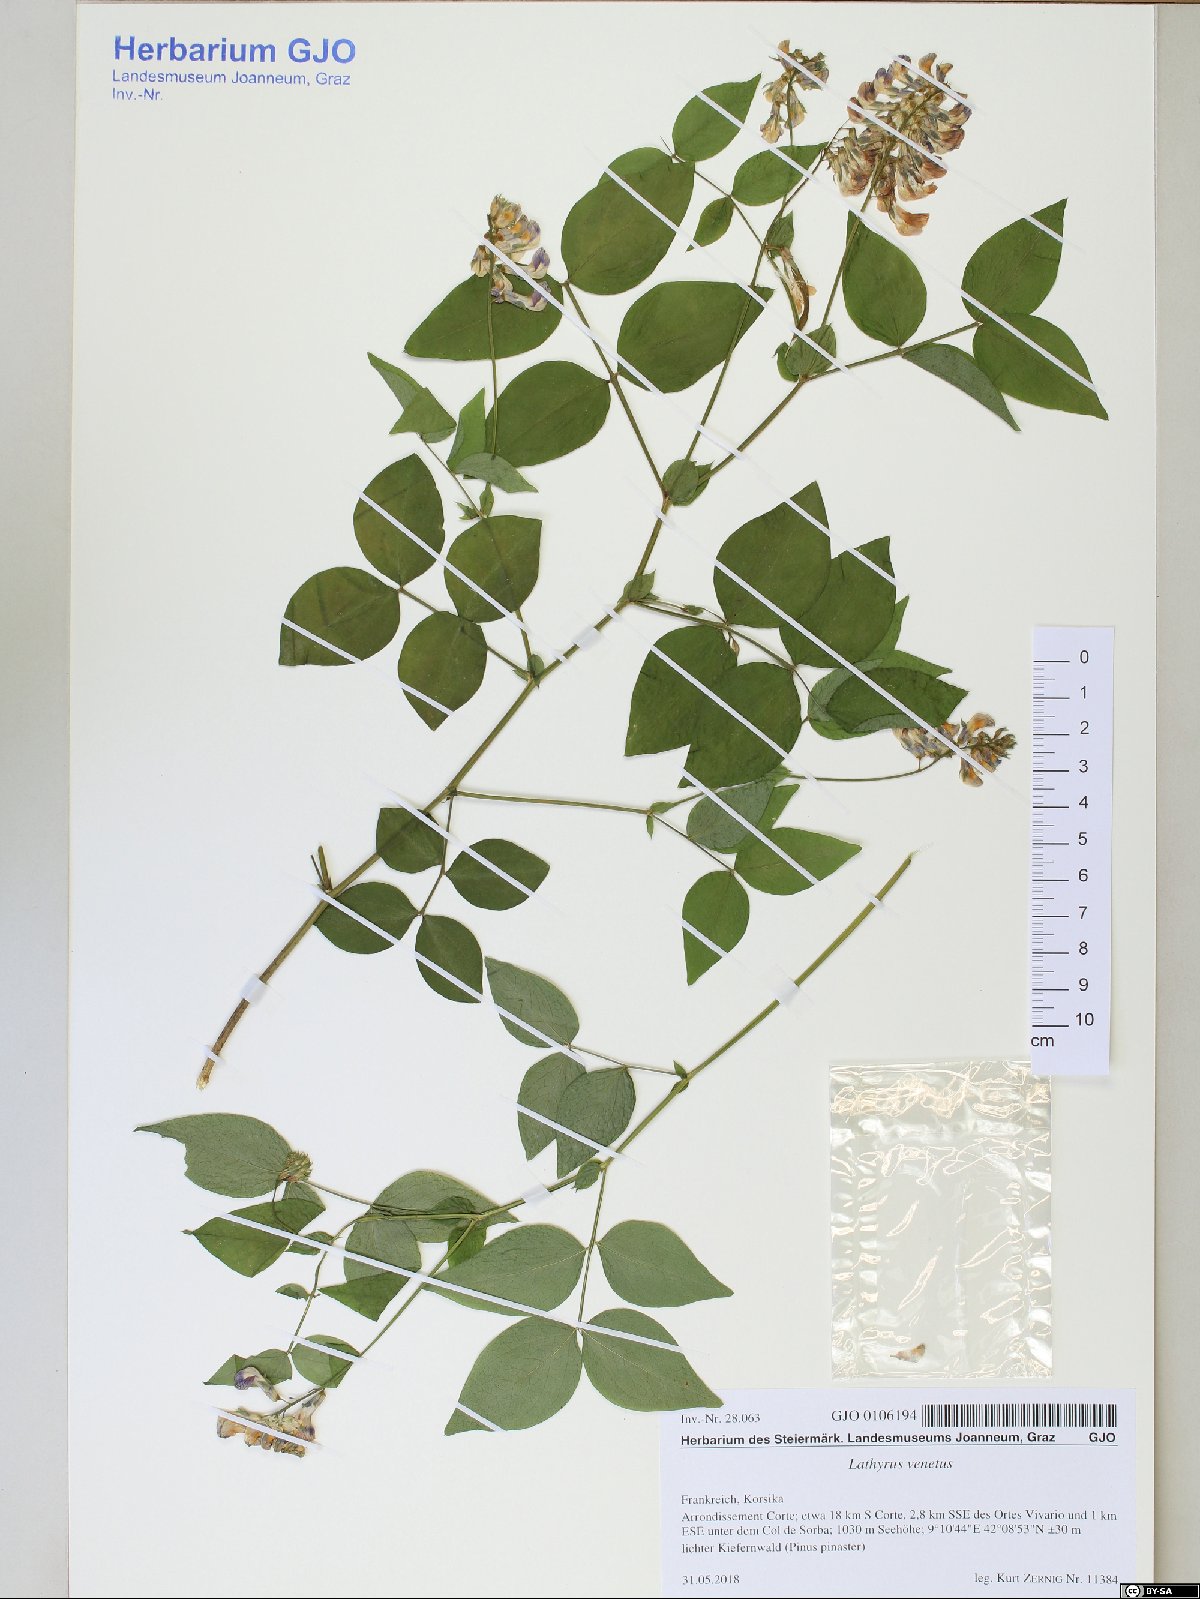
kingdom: Plantae
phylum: Tracheophyta
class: Magnoliopsida
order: Fabales
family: Fabaceae
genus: Lathyrus
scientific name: Lathyrus venetus
